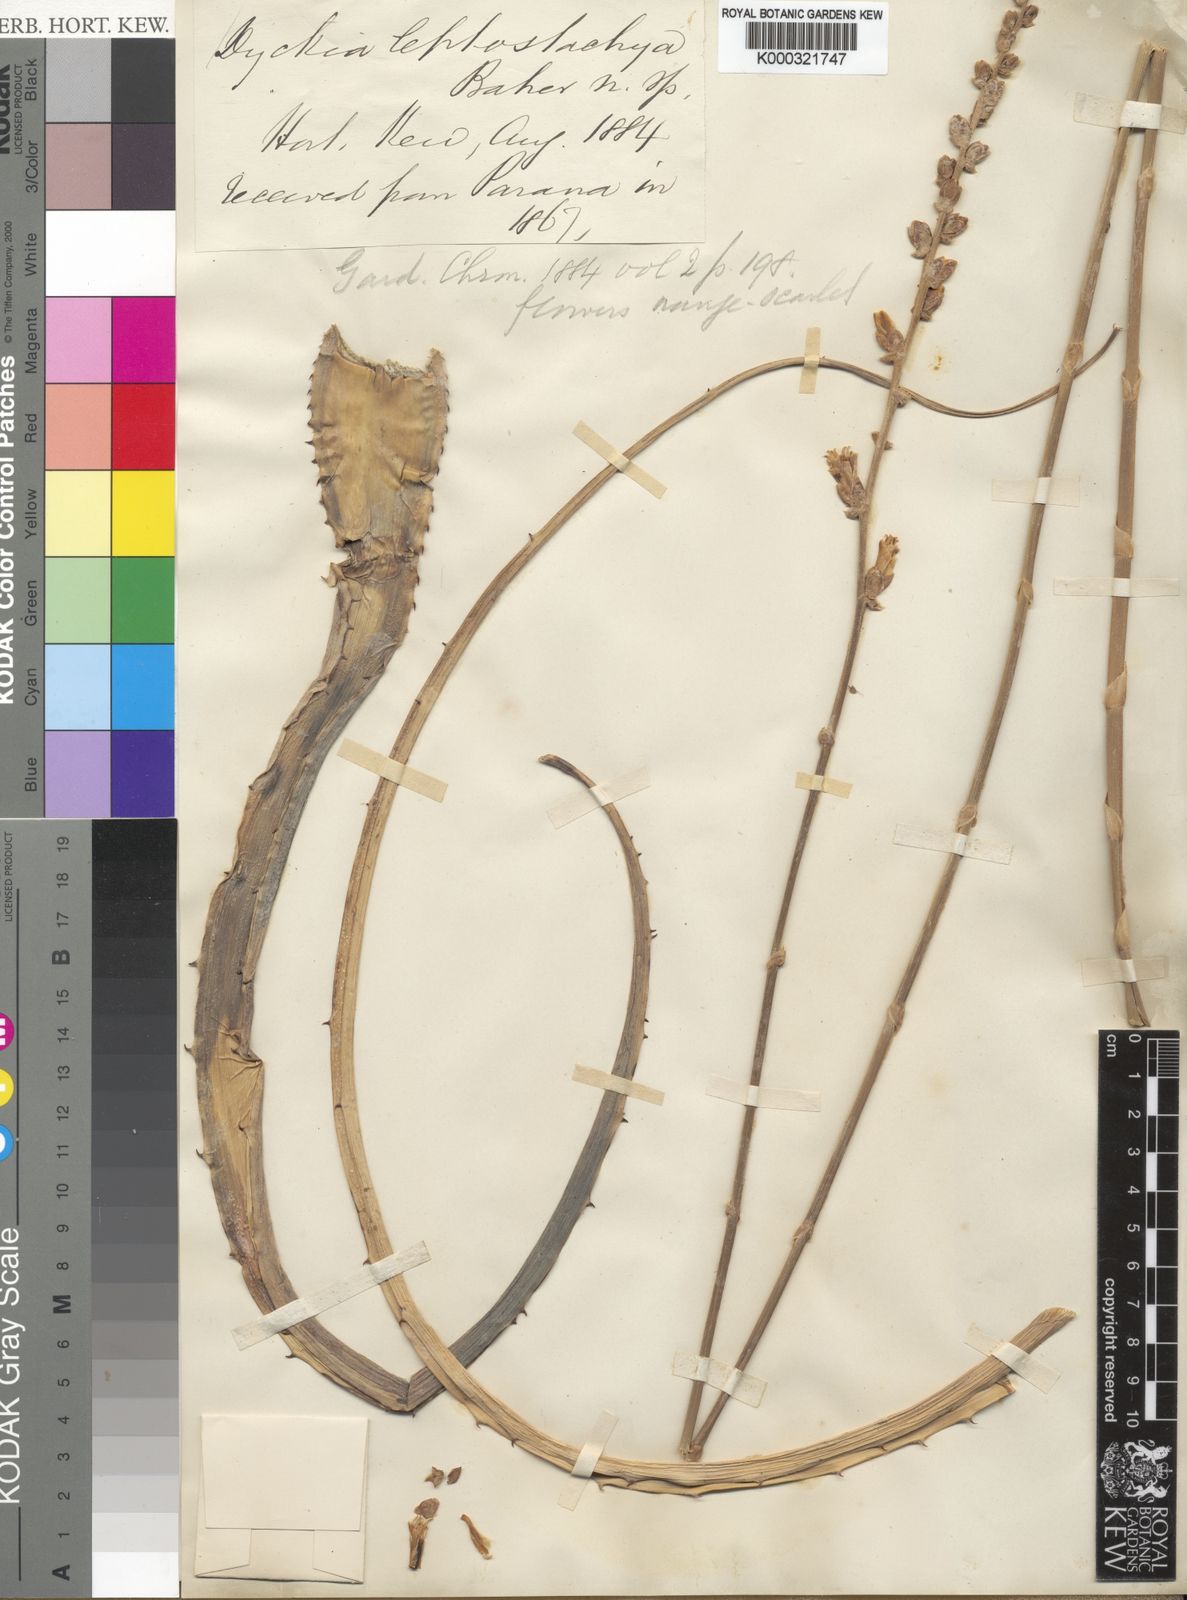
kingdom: Plantae
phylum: Tracheophyta
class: Liliopsida
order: Poales
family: Bromeliaceae
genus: Dyckia
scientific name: Dyckia leptostachya
